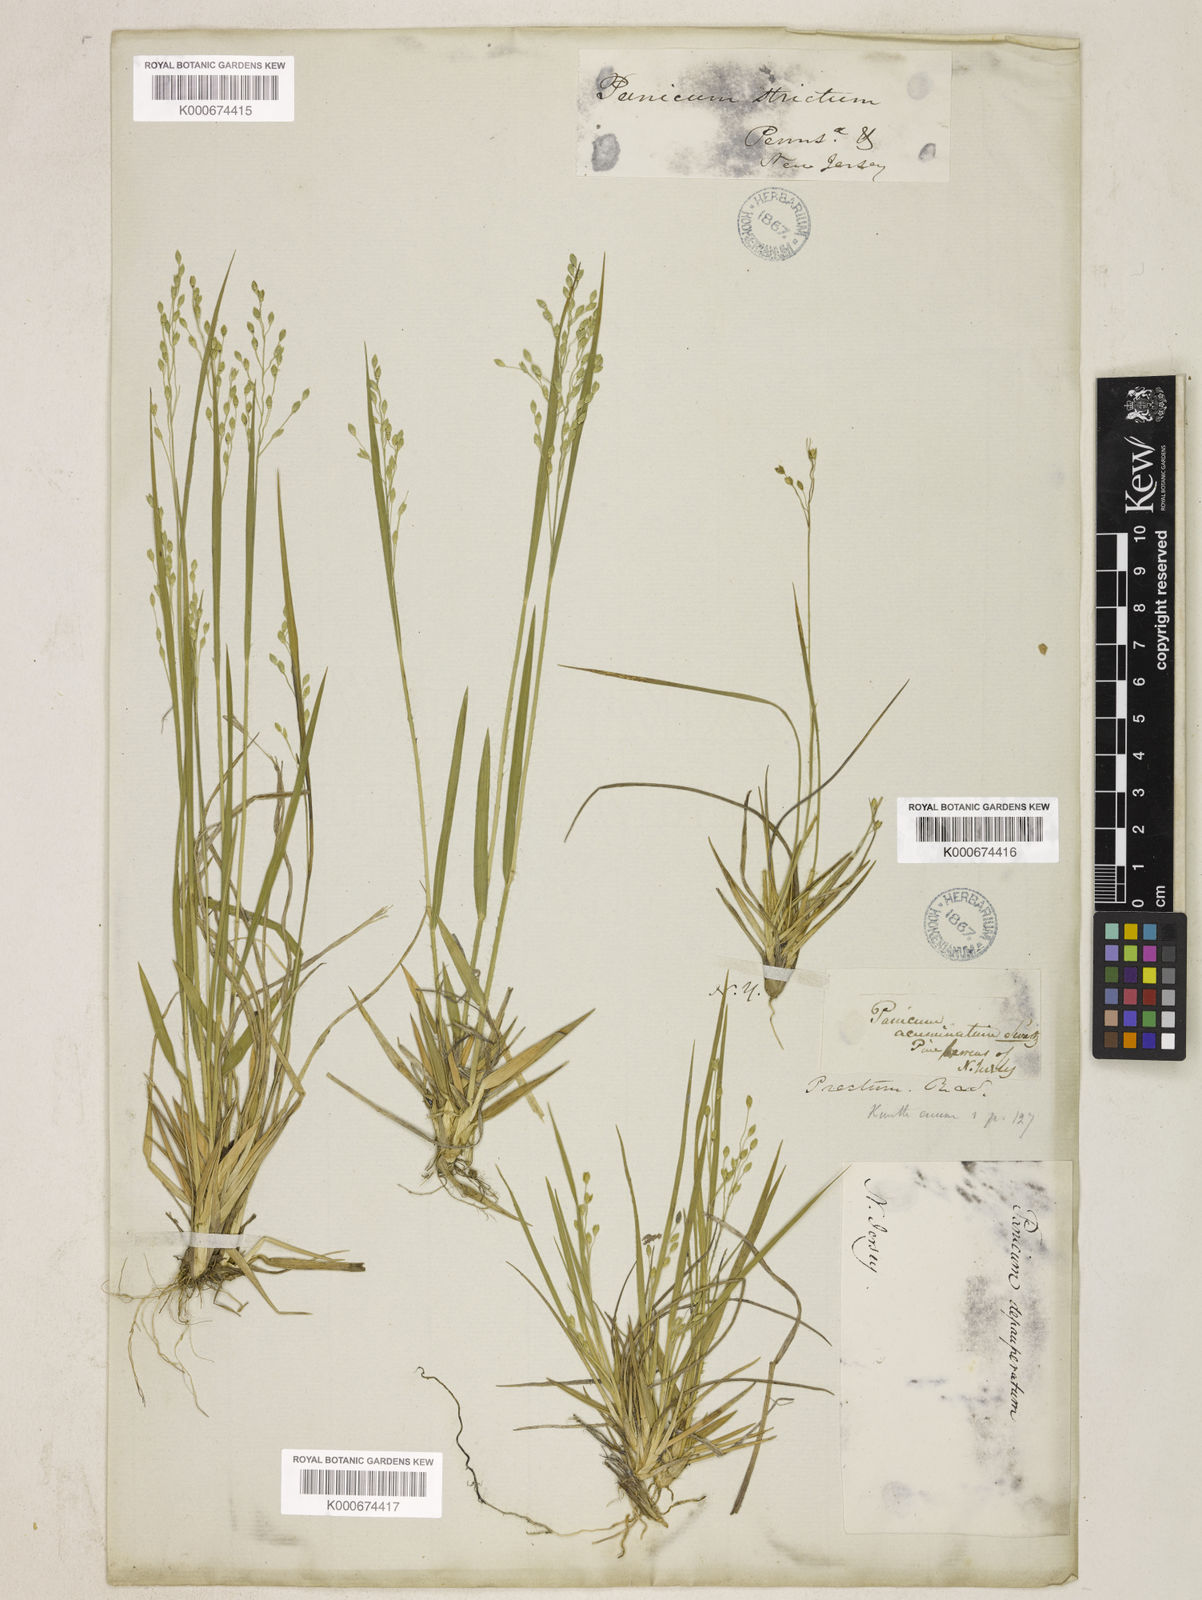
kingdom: Plantae
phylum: Tracheophyta
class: Liliopsida
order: Poales
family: Poaceae
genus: Dichanthelium
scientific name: Dichanthelium depauperatum
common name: Depauperate panicgrass
